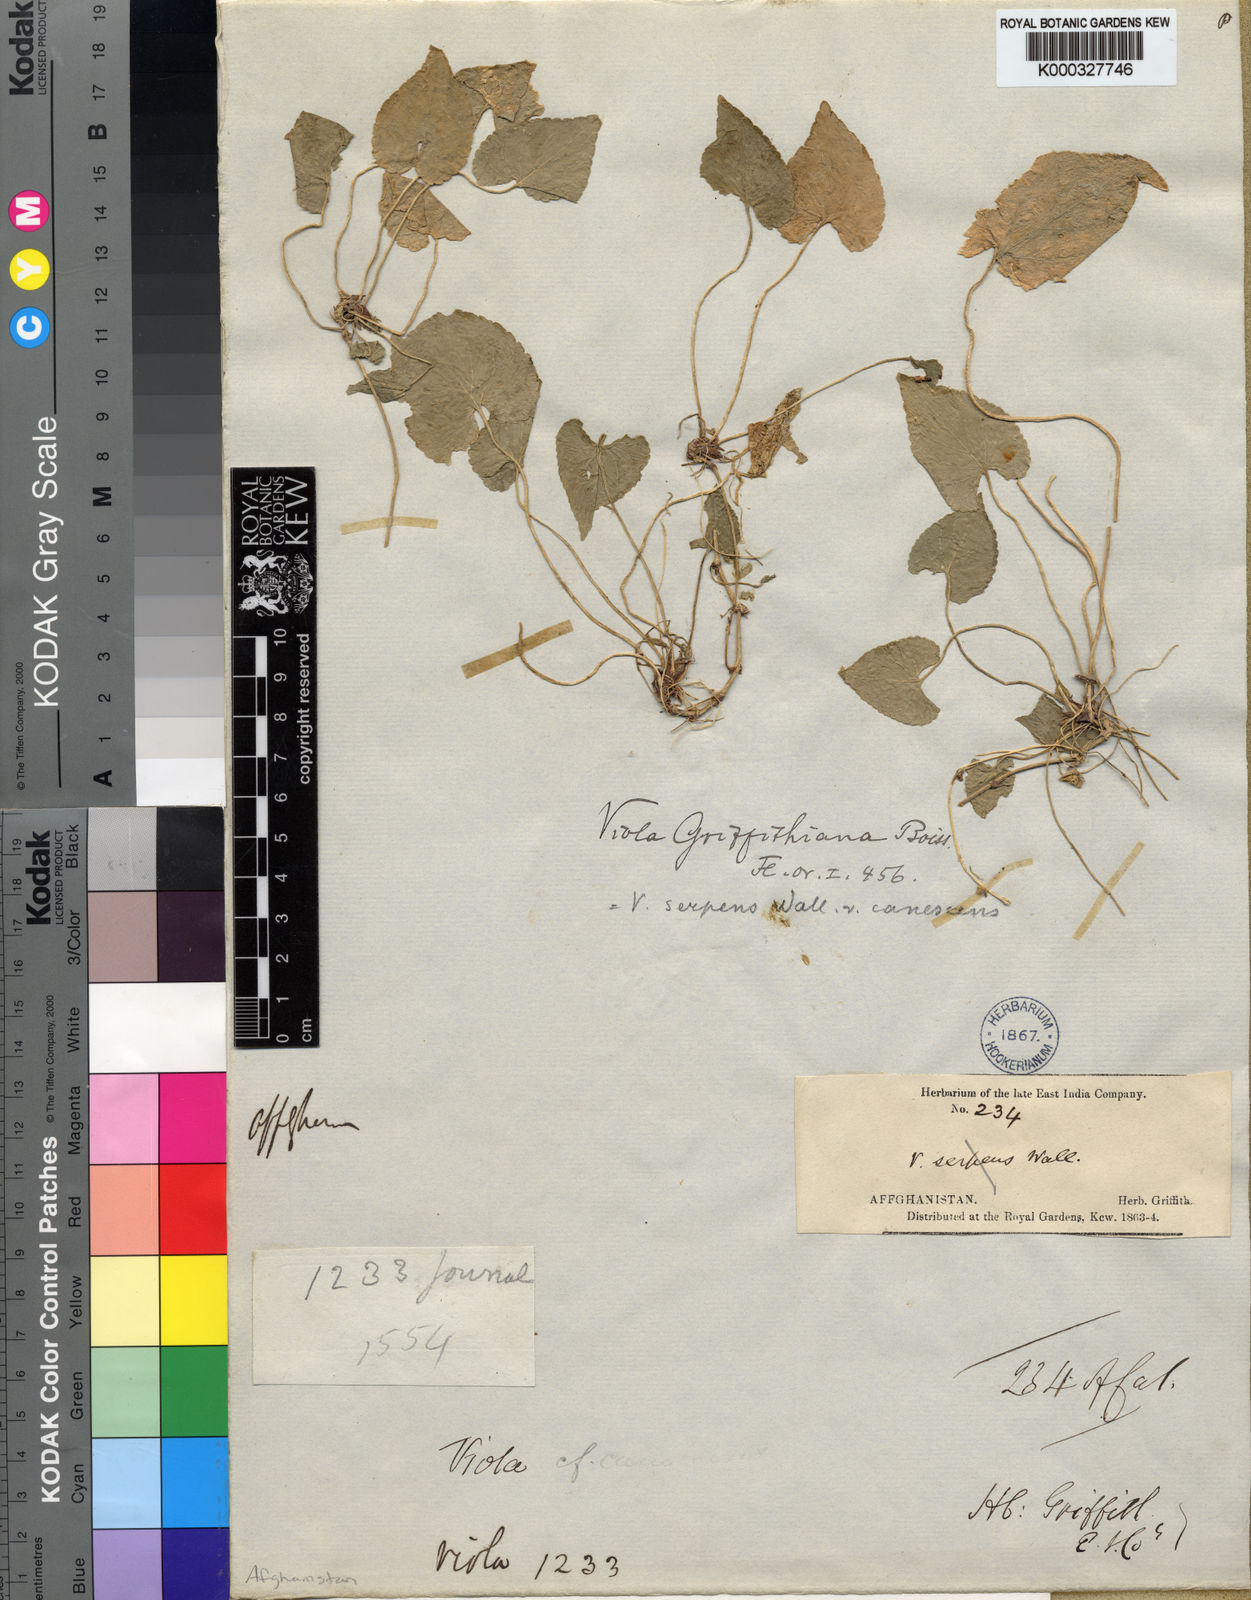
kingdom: Plantae
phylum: Tracheophyta
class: Magnoliopsida
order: Malpighiales
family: Violaceae
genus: Viola
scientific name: Viola pilosa
